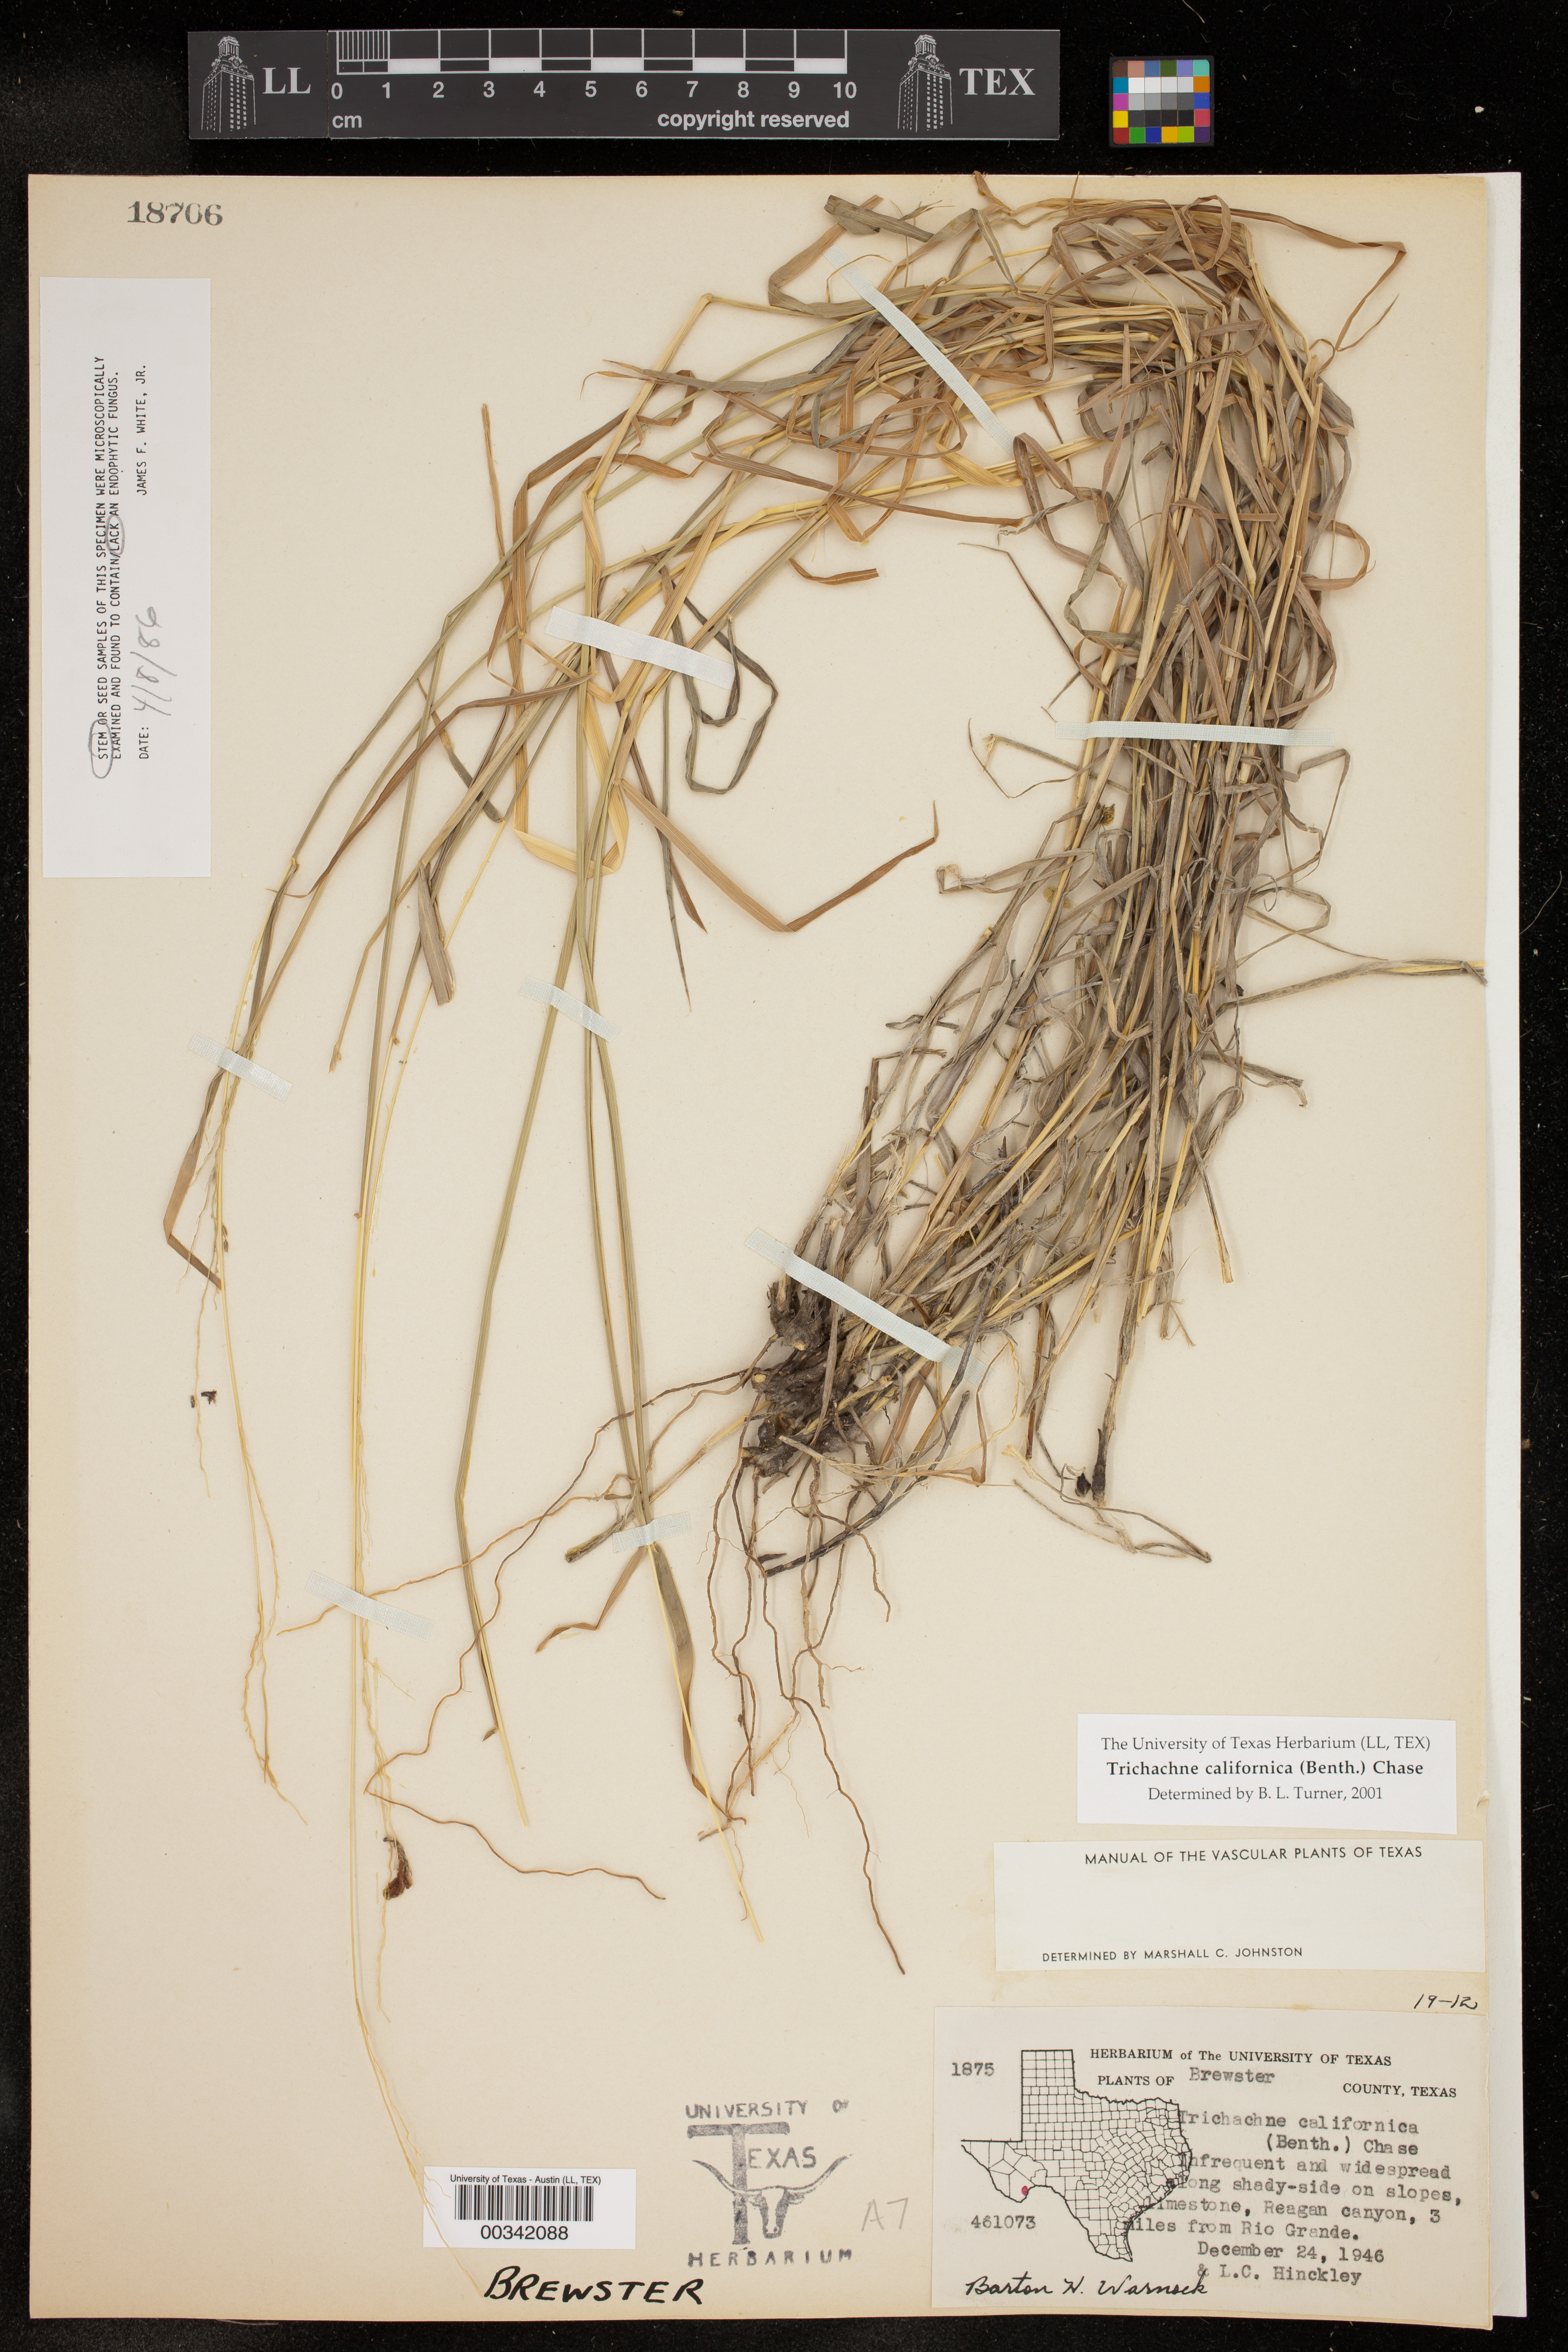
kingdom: Plantae
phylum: Tracheophyta
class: Liliopsida
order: Poales
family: Poaceae
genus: Digitaria
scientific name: Digitaria californica
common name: Arizona cottontop
